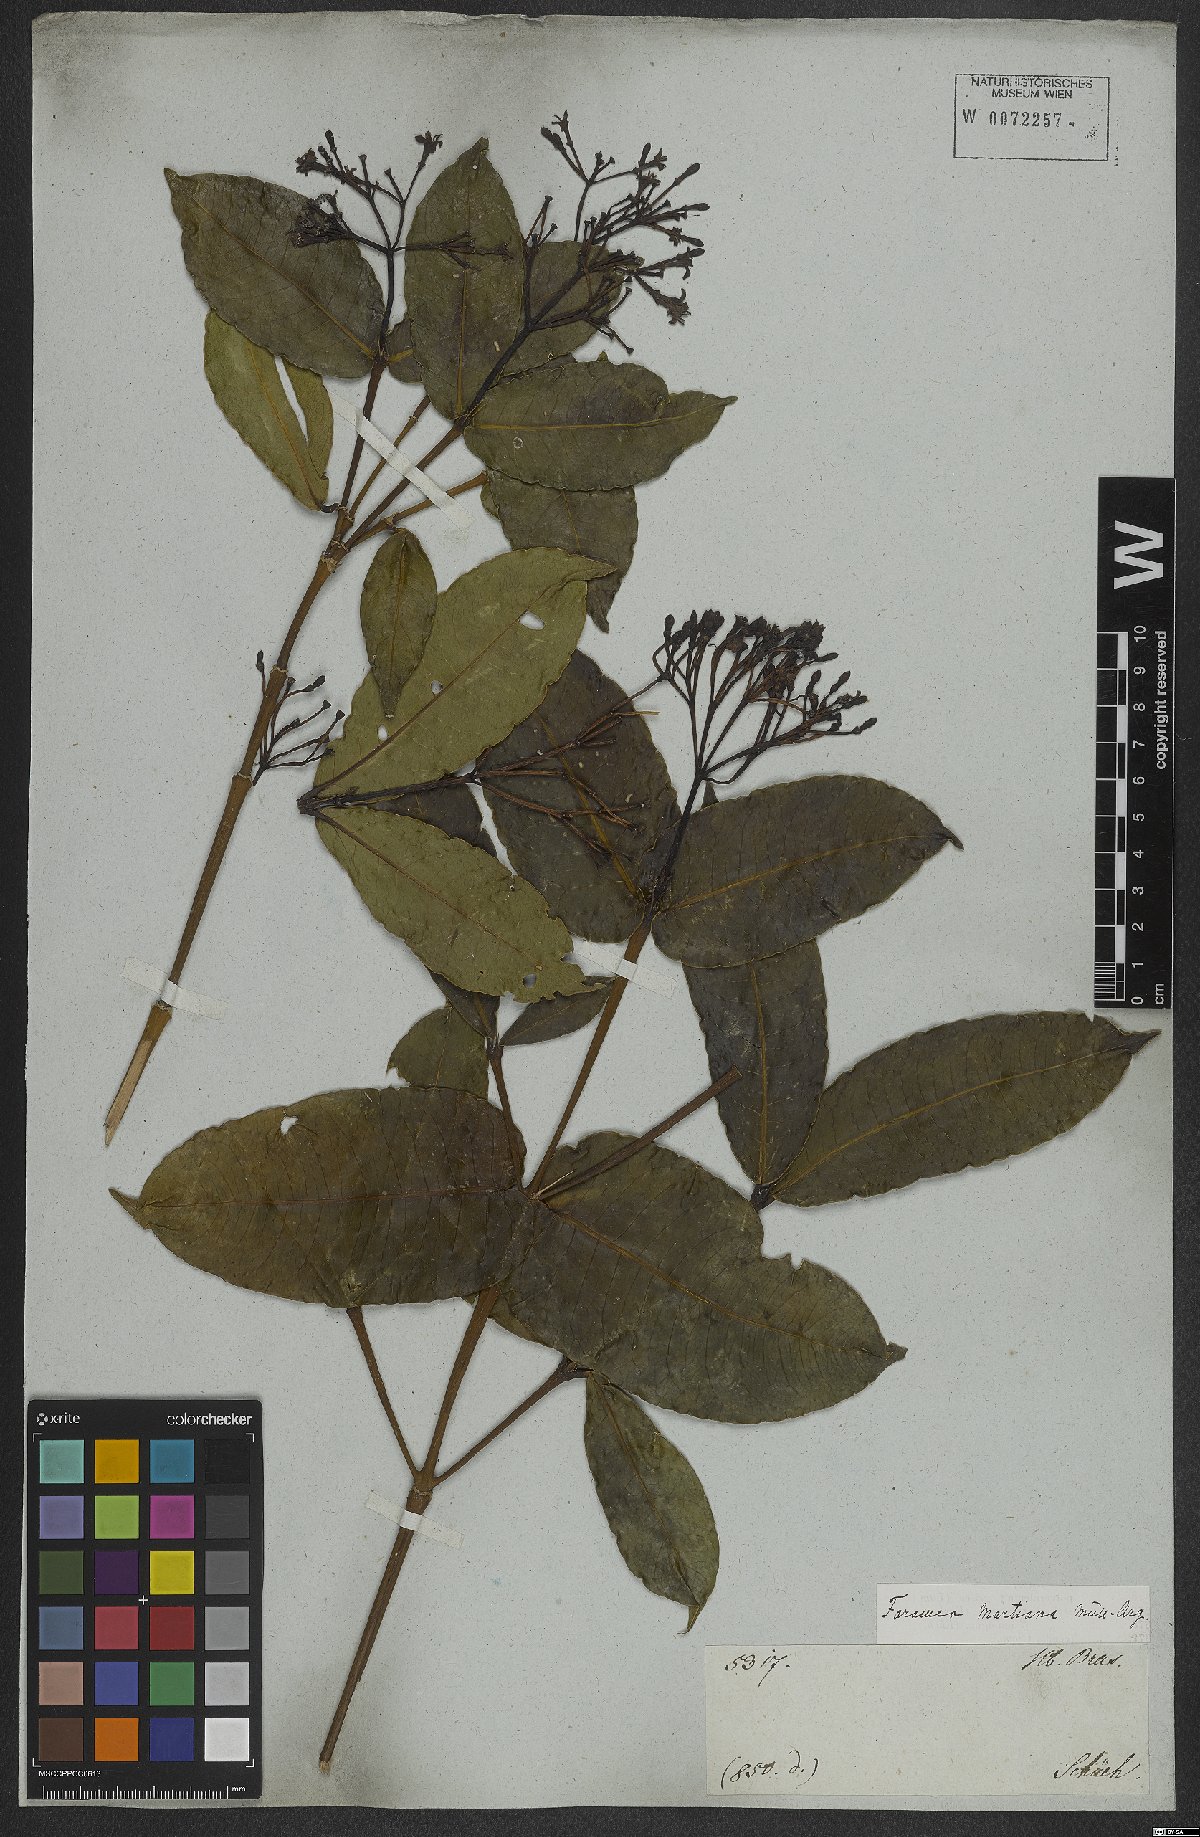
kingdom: Plantae
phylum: Tracheophyta
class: Magnoliopsida
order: Gentianales
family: Rubiaceae
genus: Faramea
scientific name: Faramea martiana
